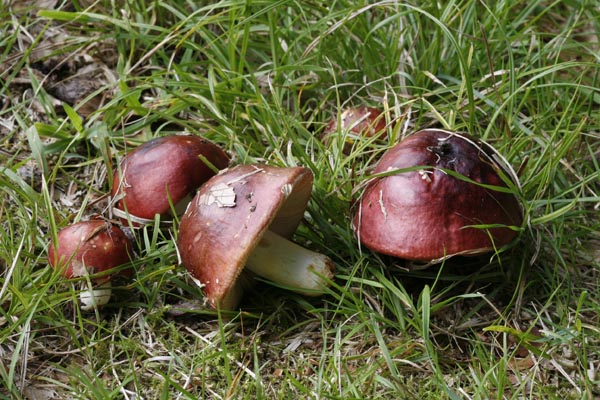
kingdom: Fungi
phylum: Basidiomycota
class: Agaricomycetes
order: Russulales
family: Russulaceae
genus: Russula
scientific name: Russula faginea
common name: bøge-skørhat
